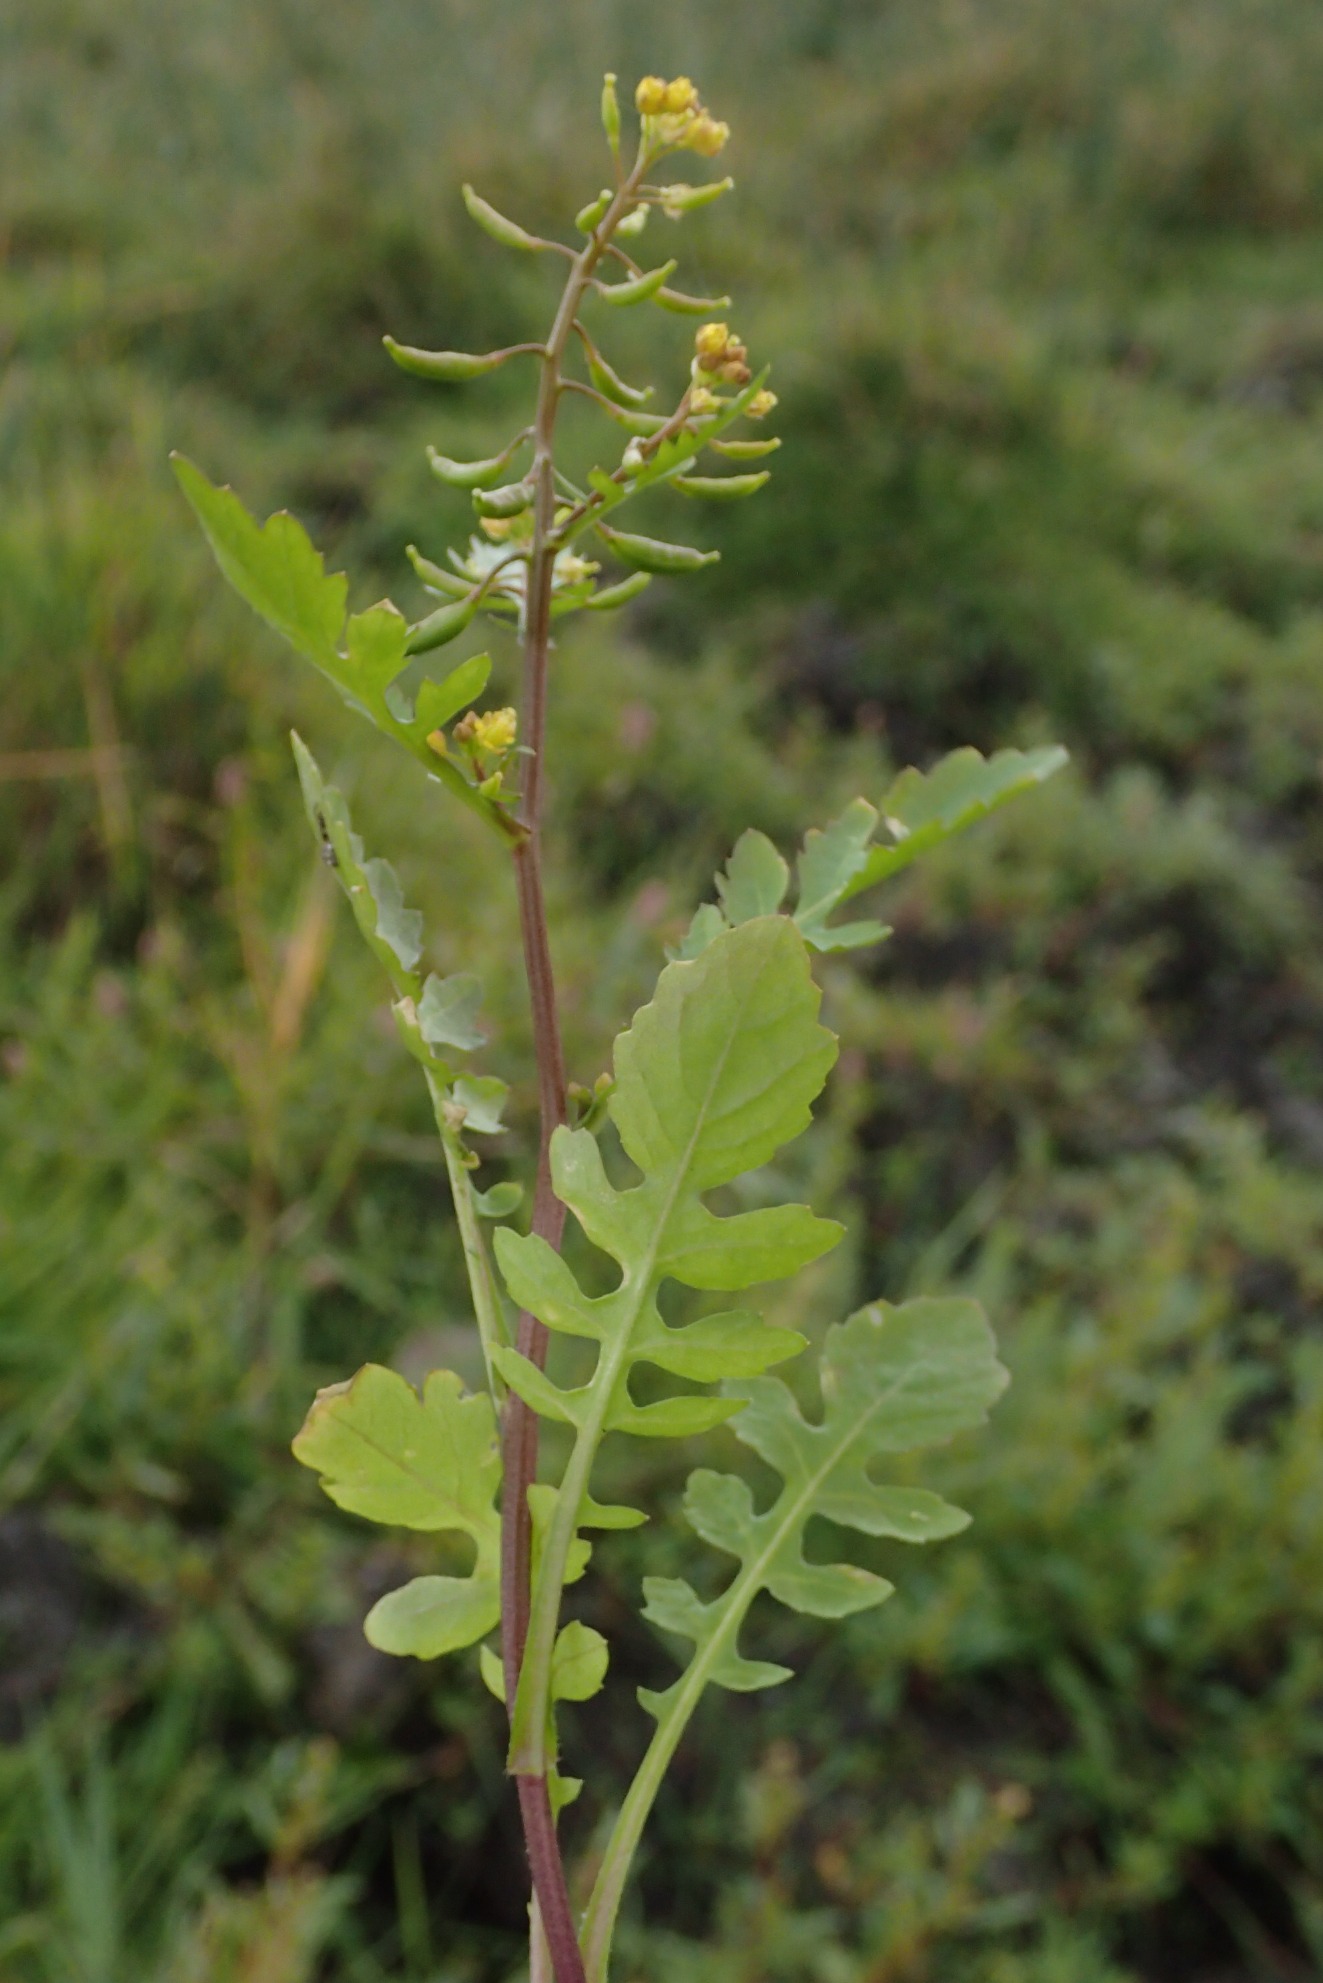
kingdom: Plantae
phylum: Tracheophyta
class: Magnoliopsida
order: Brassicales
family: Brassicaceae
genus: Rorippa
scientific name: Rorippa palustris
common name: Kær-guldkarse
